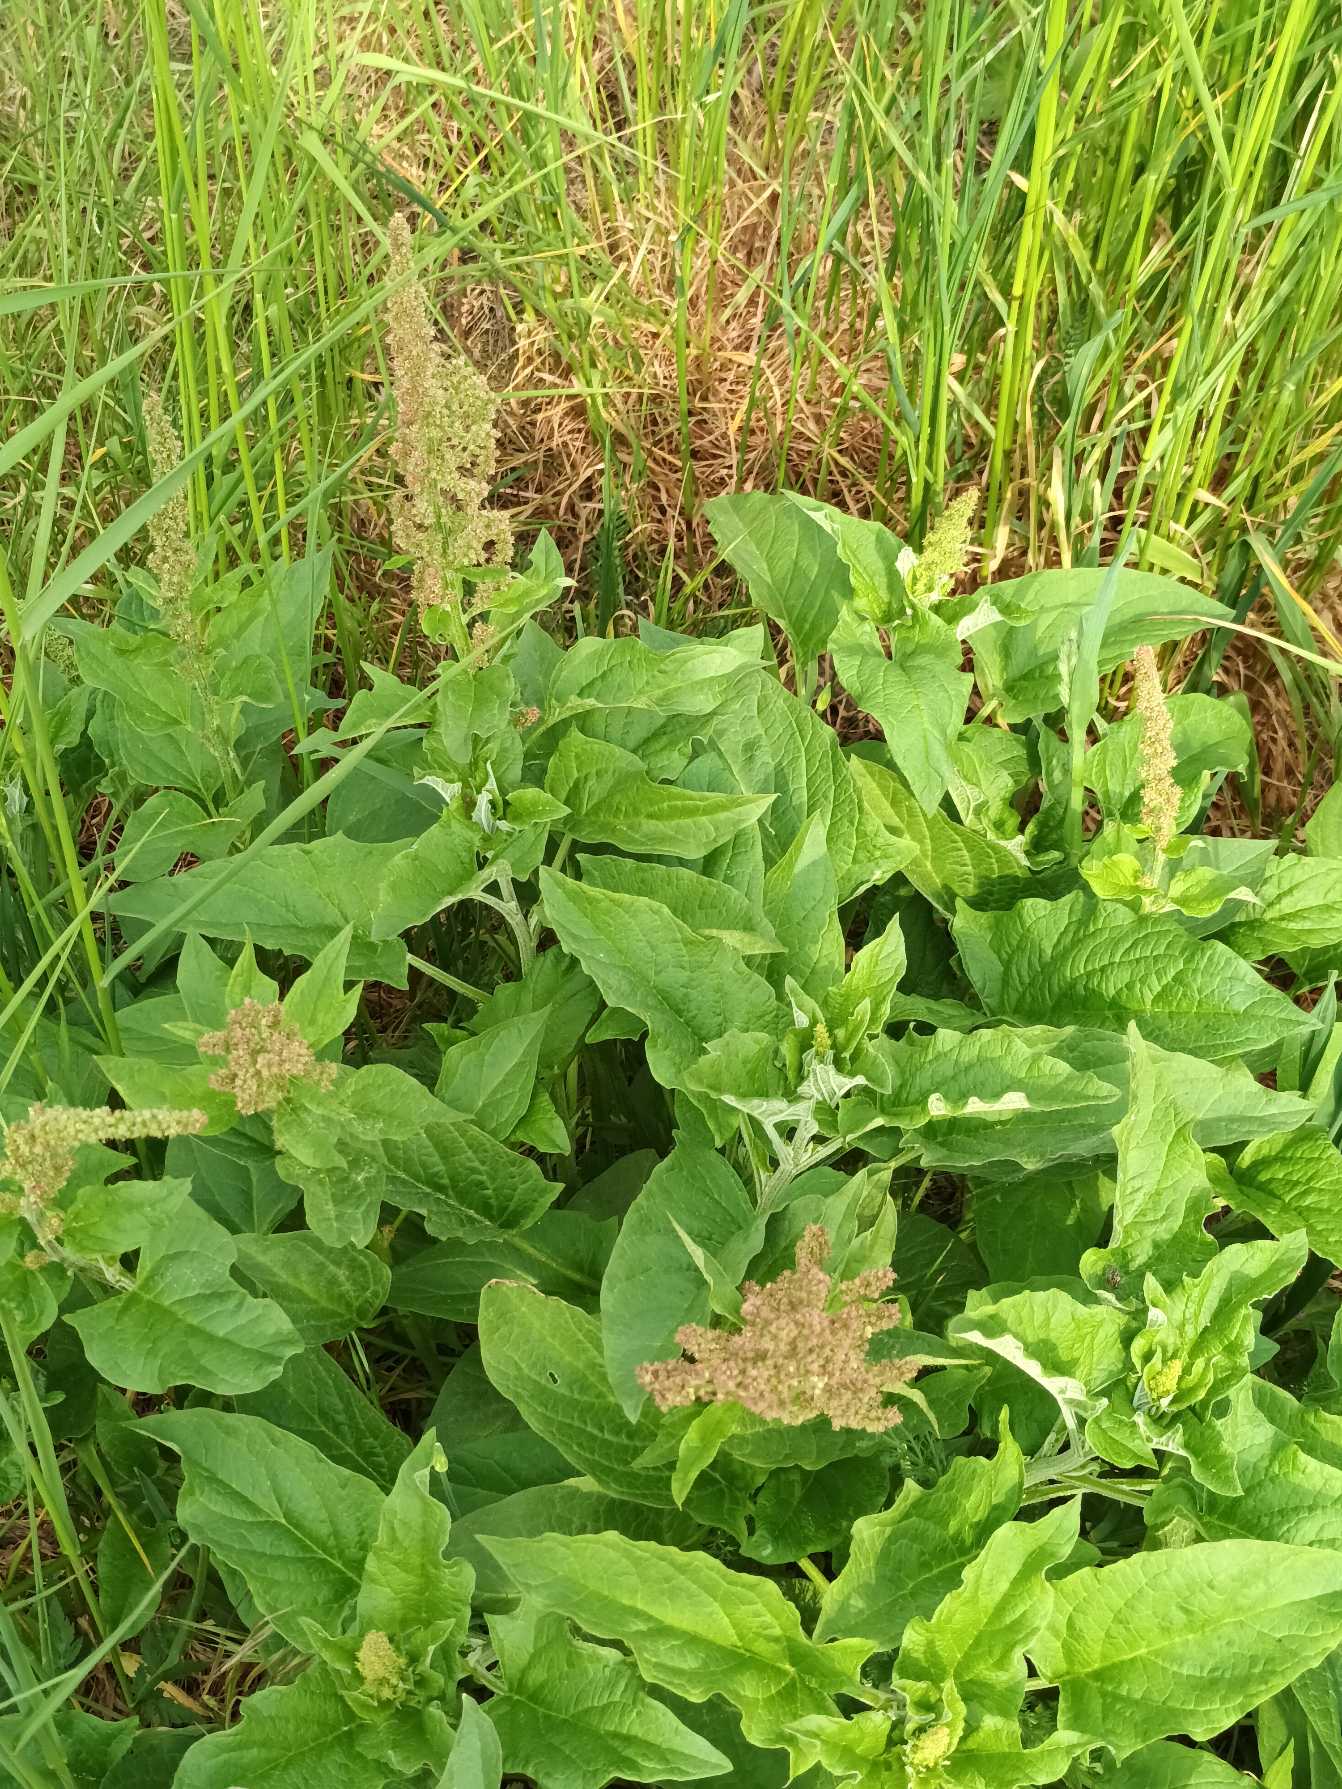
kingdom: Plantae
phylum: Tracheophyta
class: Magnoliopsida
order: Caryophyllales
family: Amaranthaceae
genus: Blitum
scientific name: Blitum bonus-henricus
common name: Stolthenriks-gåsefod
